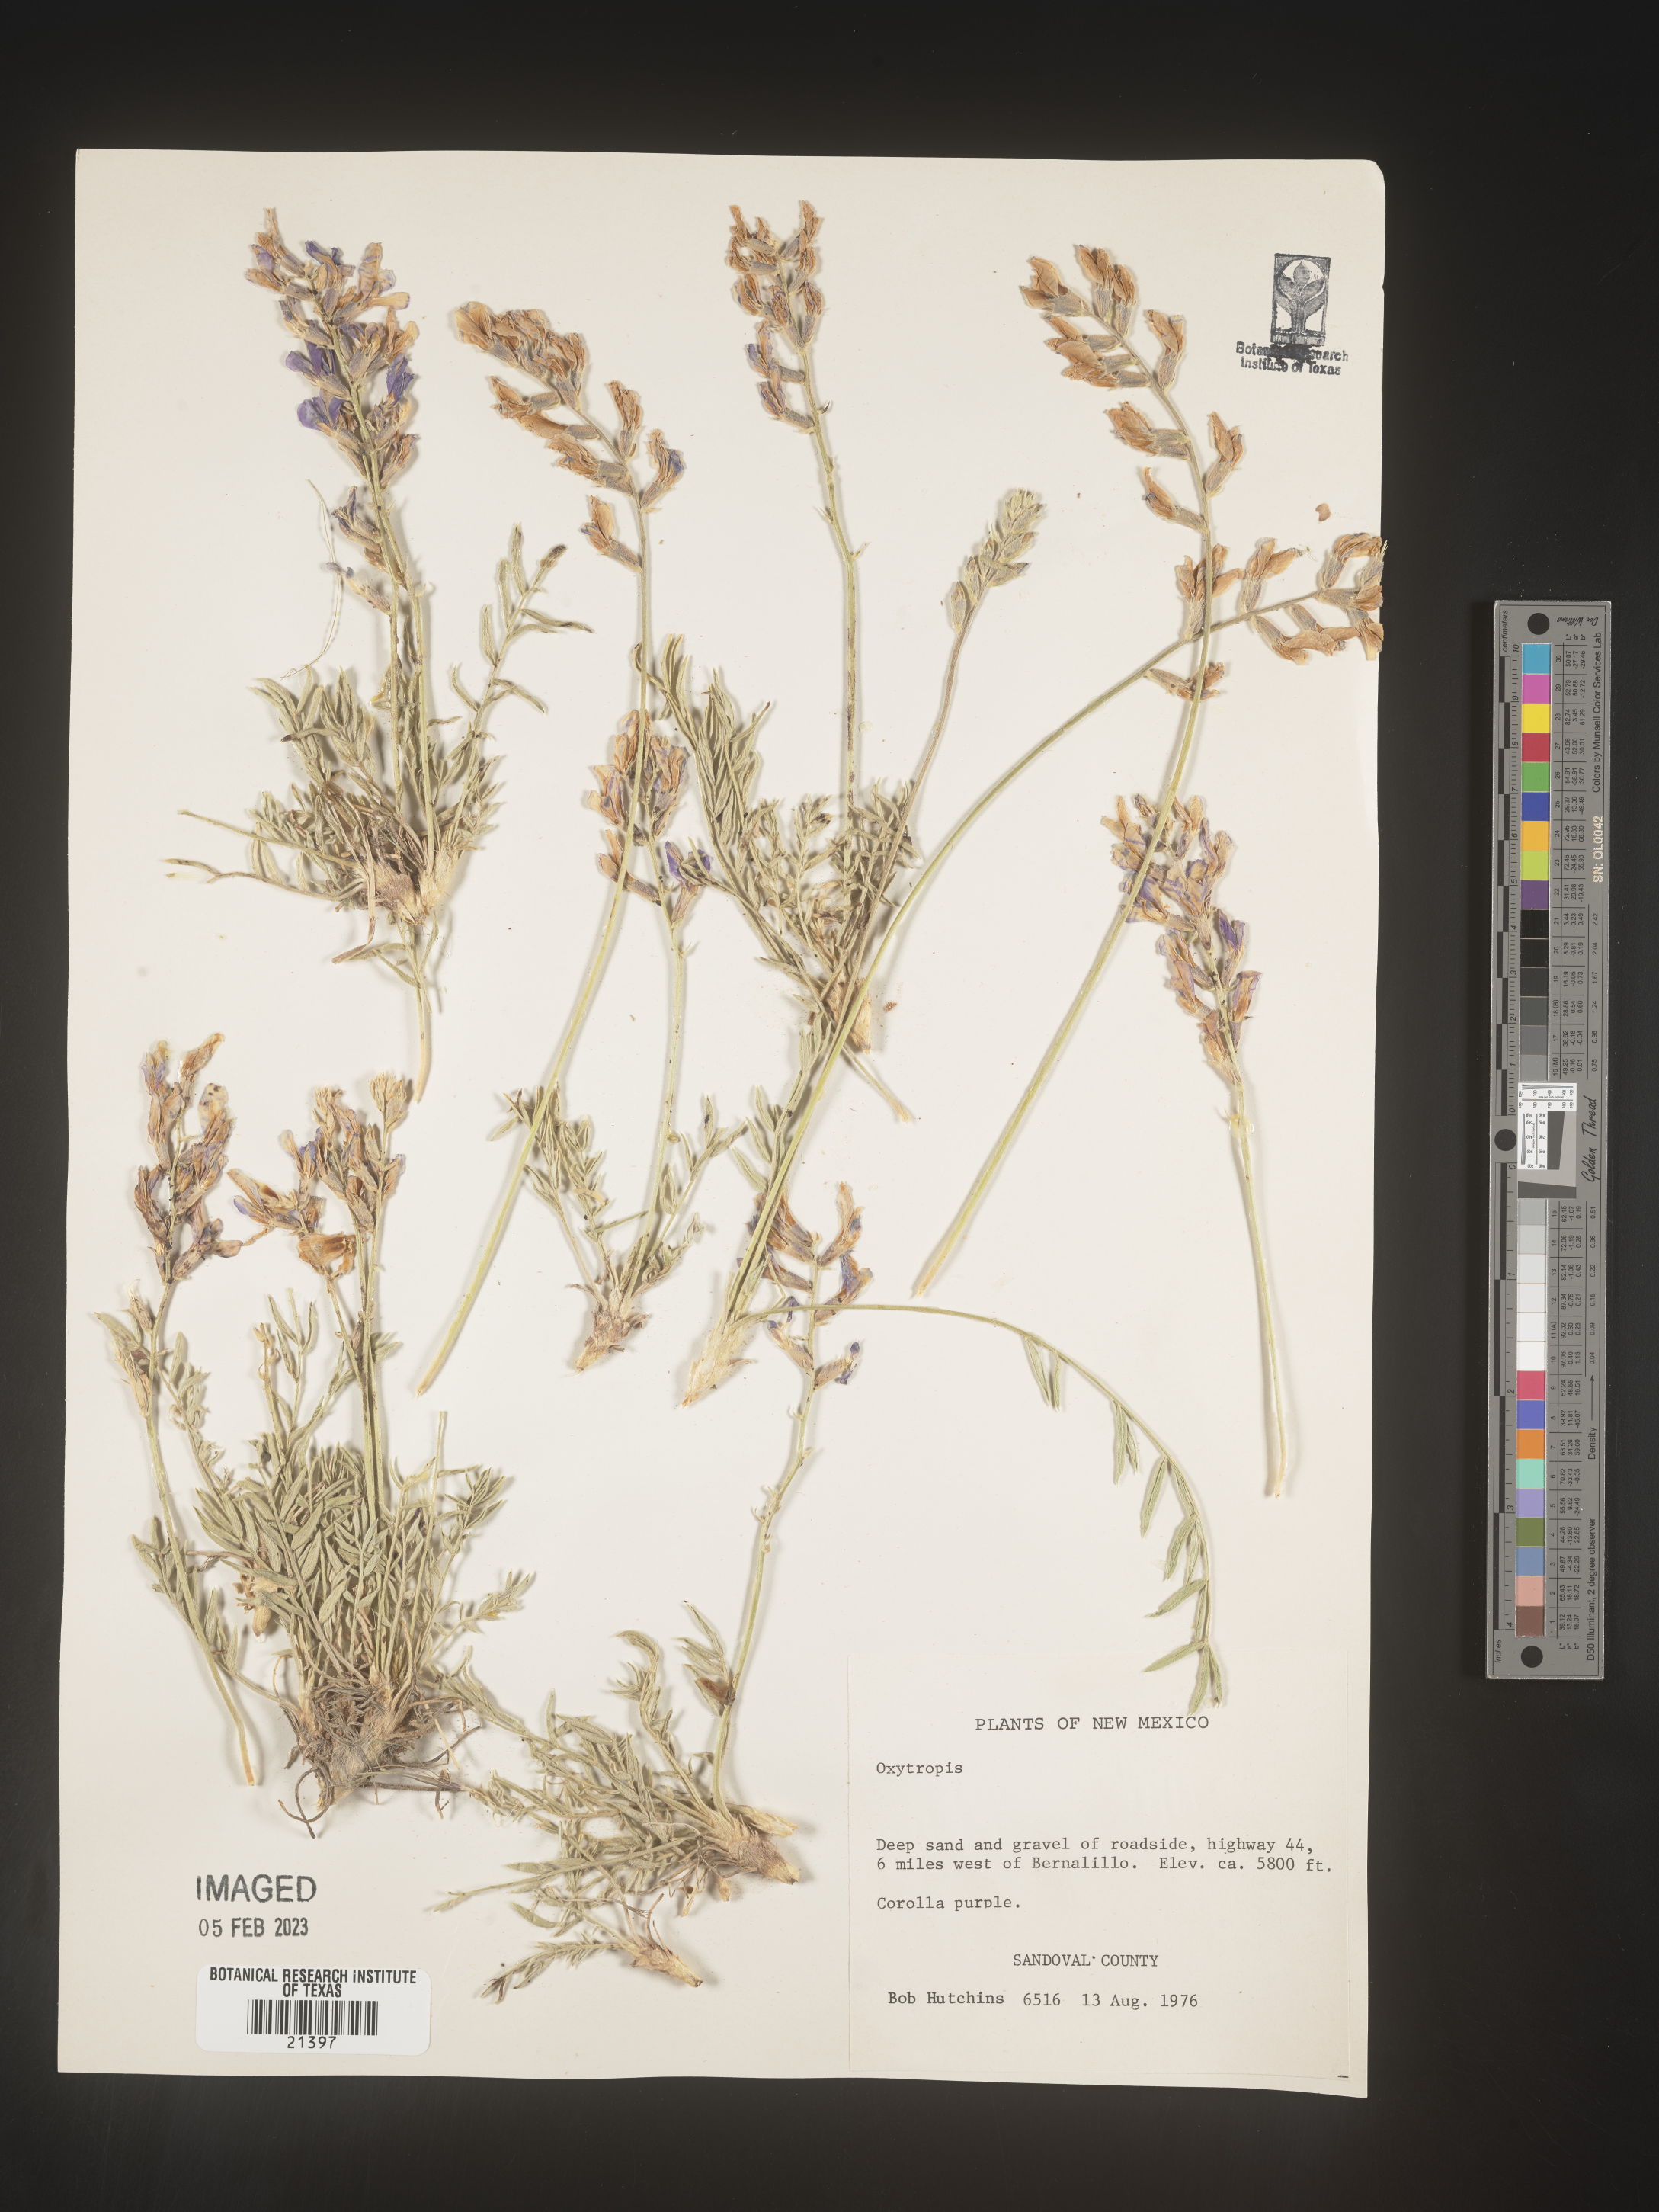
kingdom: Plantae
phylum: Tracheophyta
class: Magnoliopsida
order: Fabales
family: Fabaceae
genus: Oxytropis
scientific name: Oxytropis
